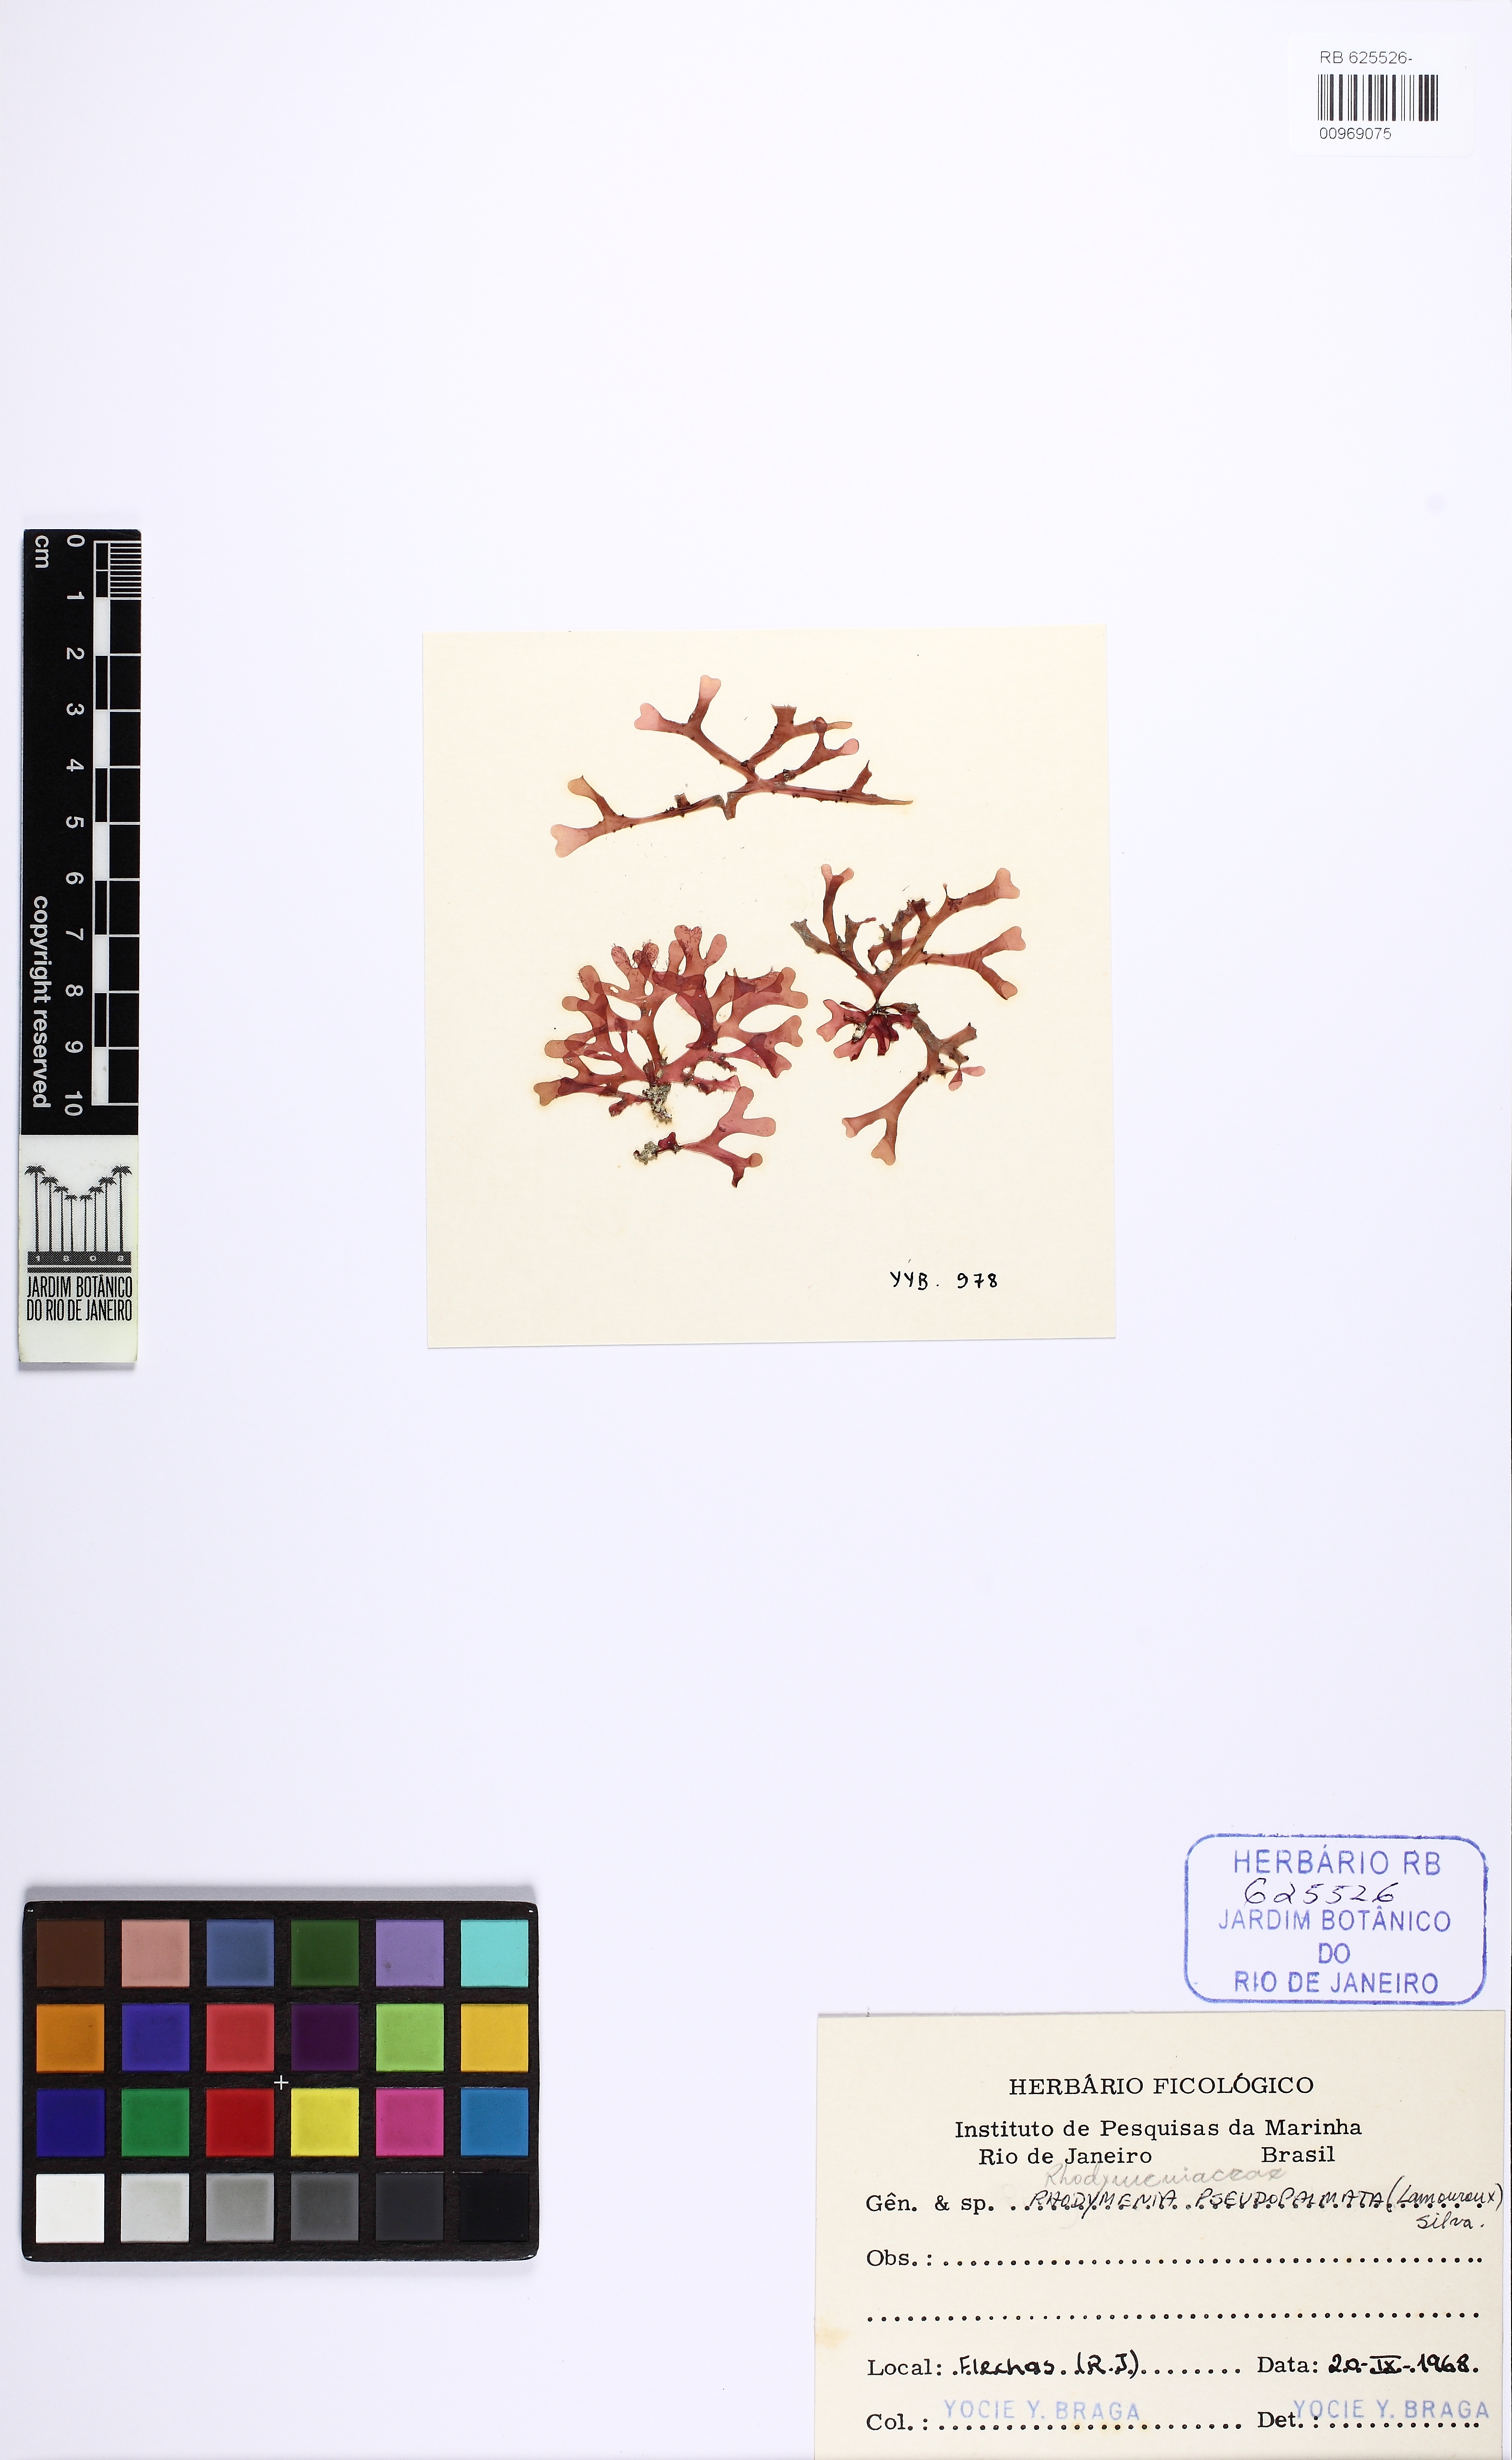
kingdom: Plantae
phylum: Rhodophyta
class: Florideophyceae
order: Rhodymeniales
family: Rhodymeniaceae
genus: Rhodymenia
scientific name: Rhodymenia pseudopalmata
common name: Palmate roseweed
